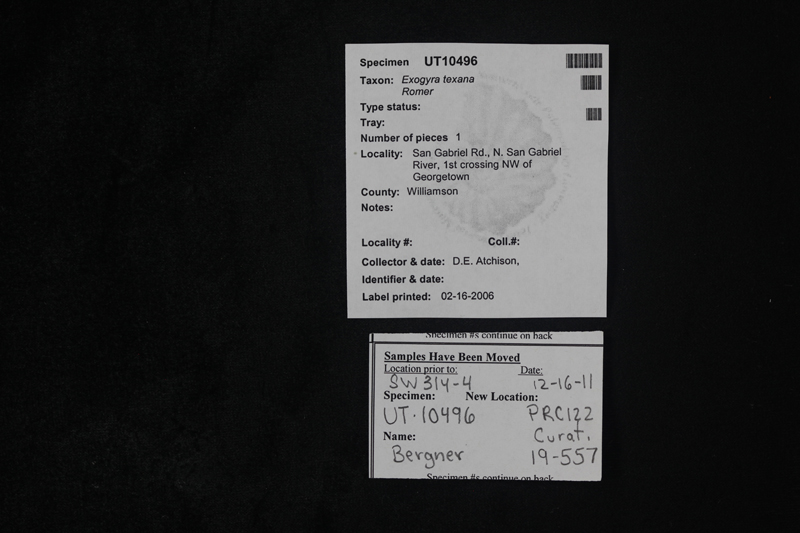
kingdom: Animalia
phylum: Mollusca
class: Bivalvia
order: Ostreida
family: Gryphaeidae
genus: Exogyra
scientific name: Exogyra
